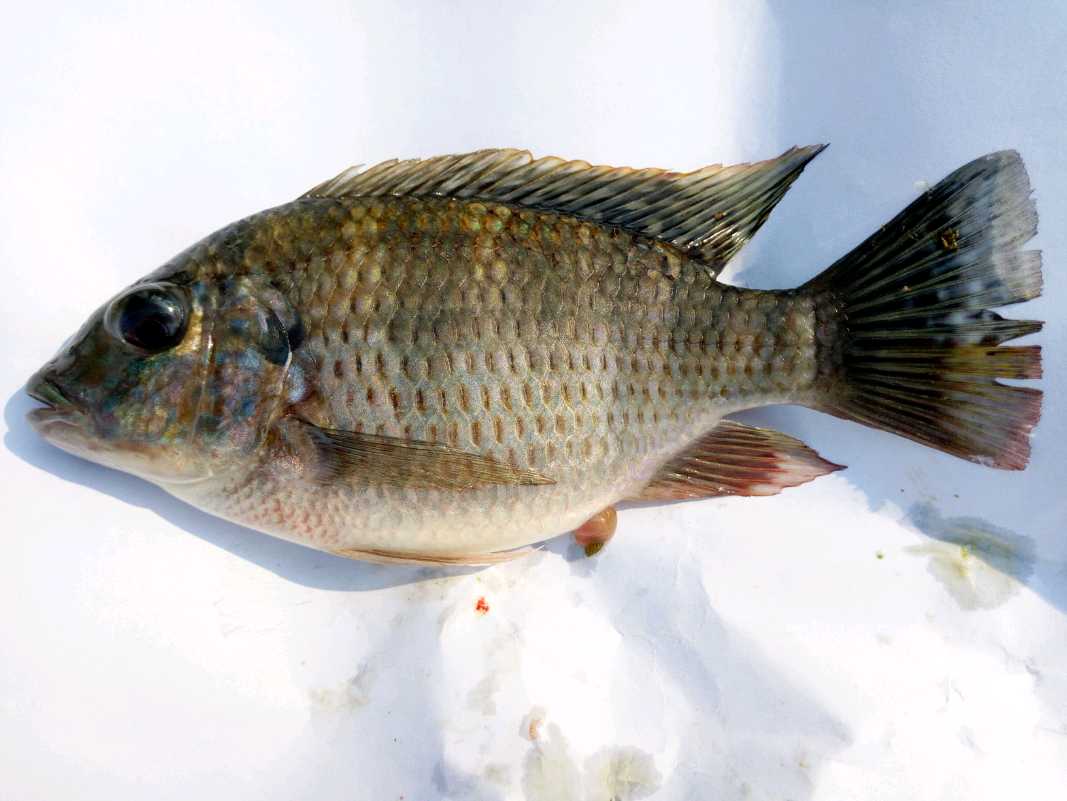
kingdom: Animalia
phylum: Chordata
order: Perciformes
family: Cichlidae
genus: Coptodon
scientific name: Coptodon rendalli
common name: Redbreast tilapia
